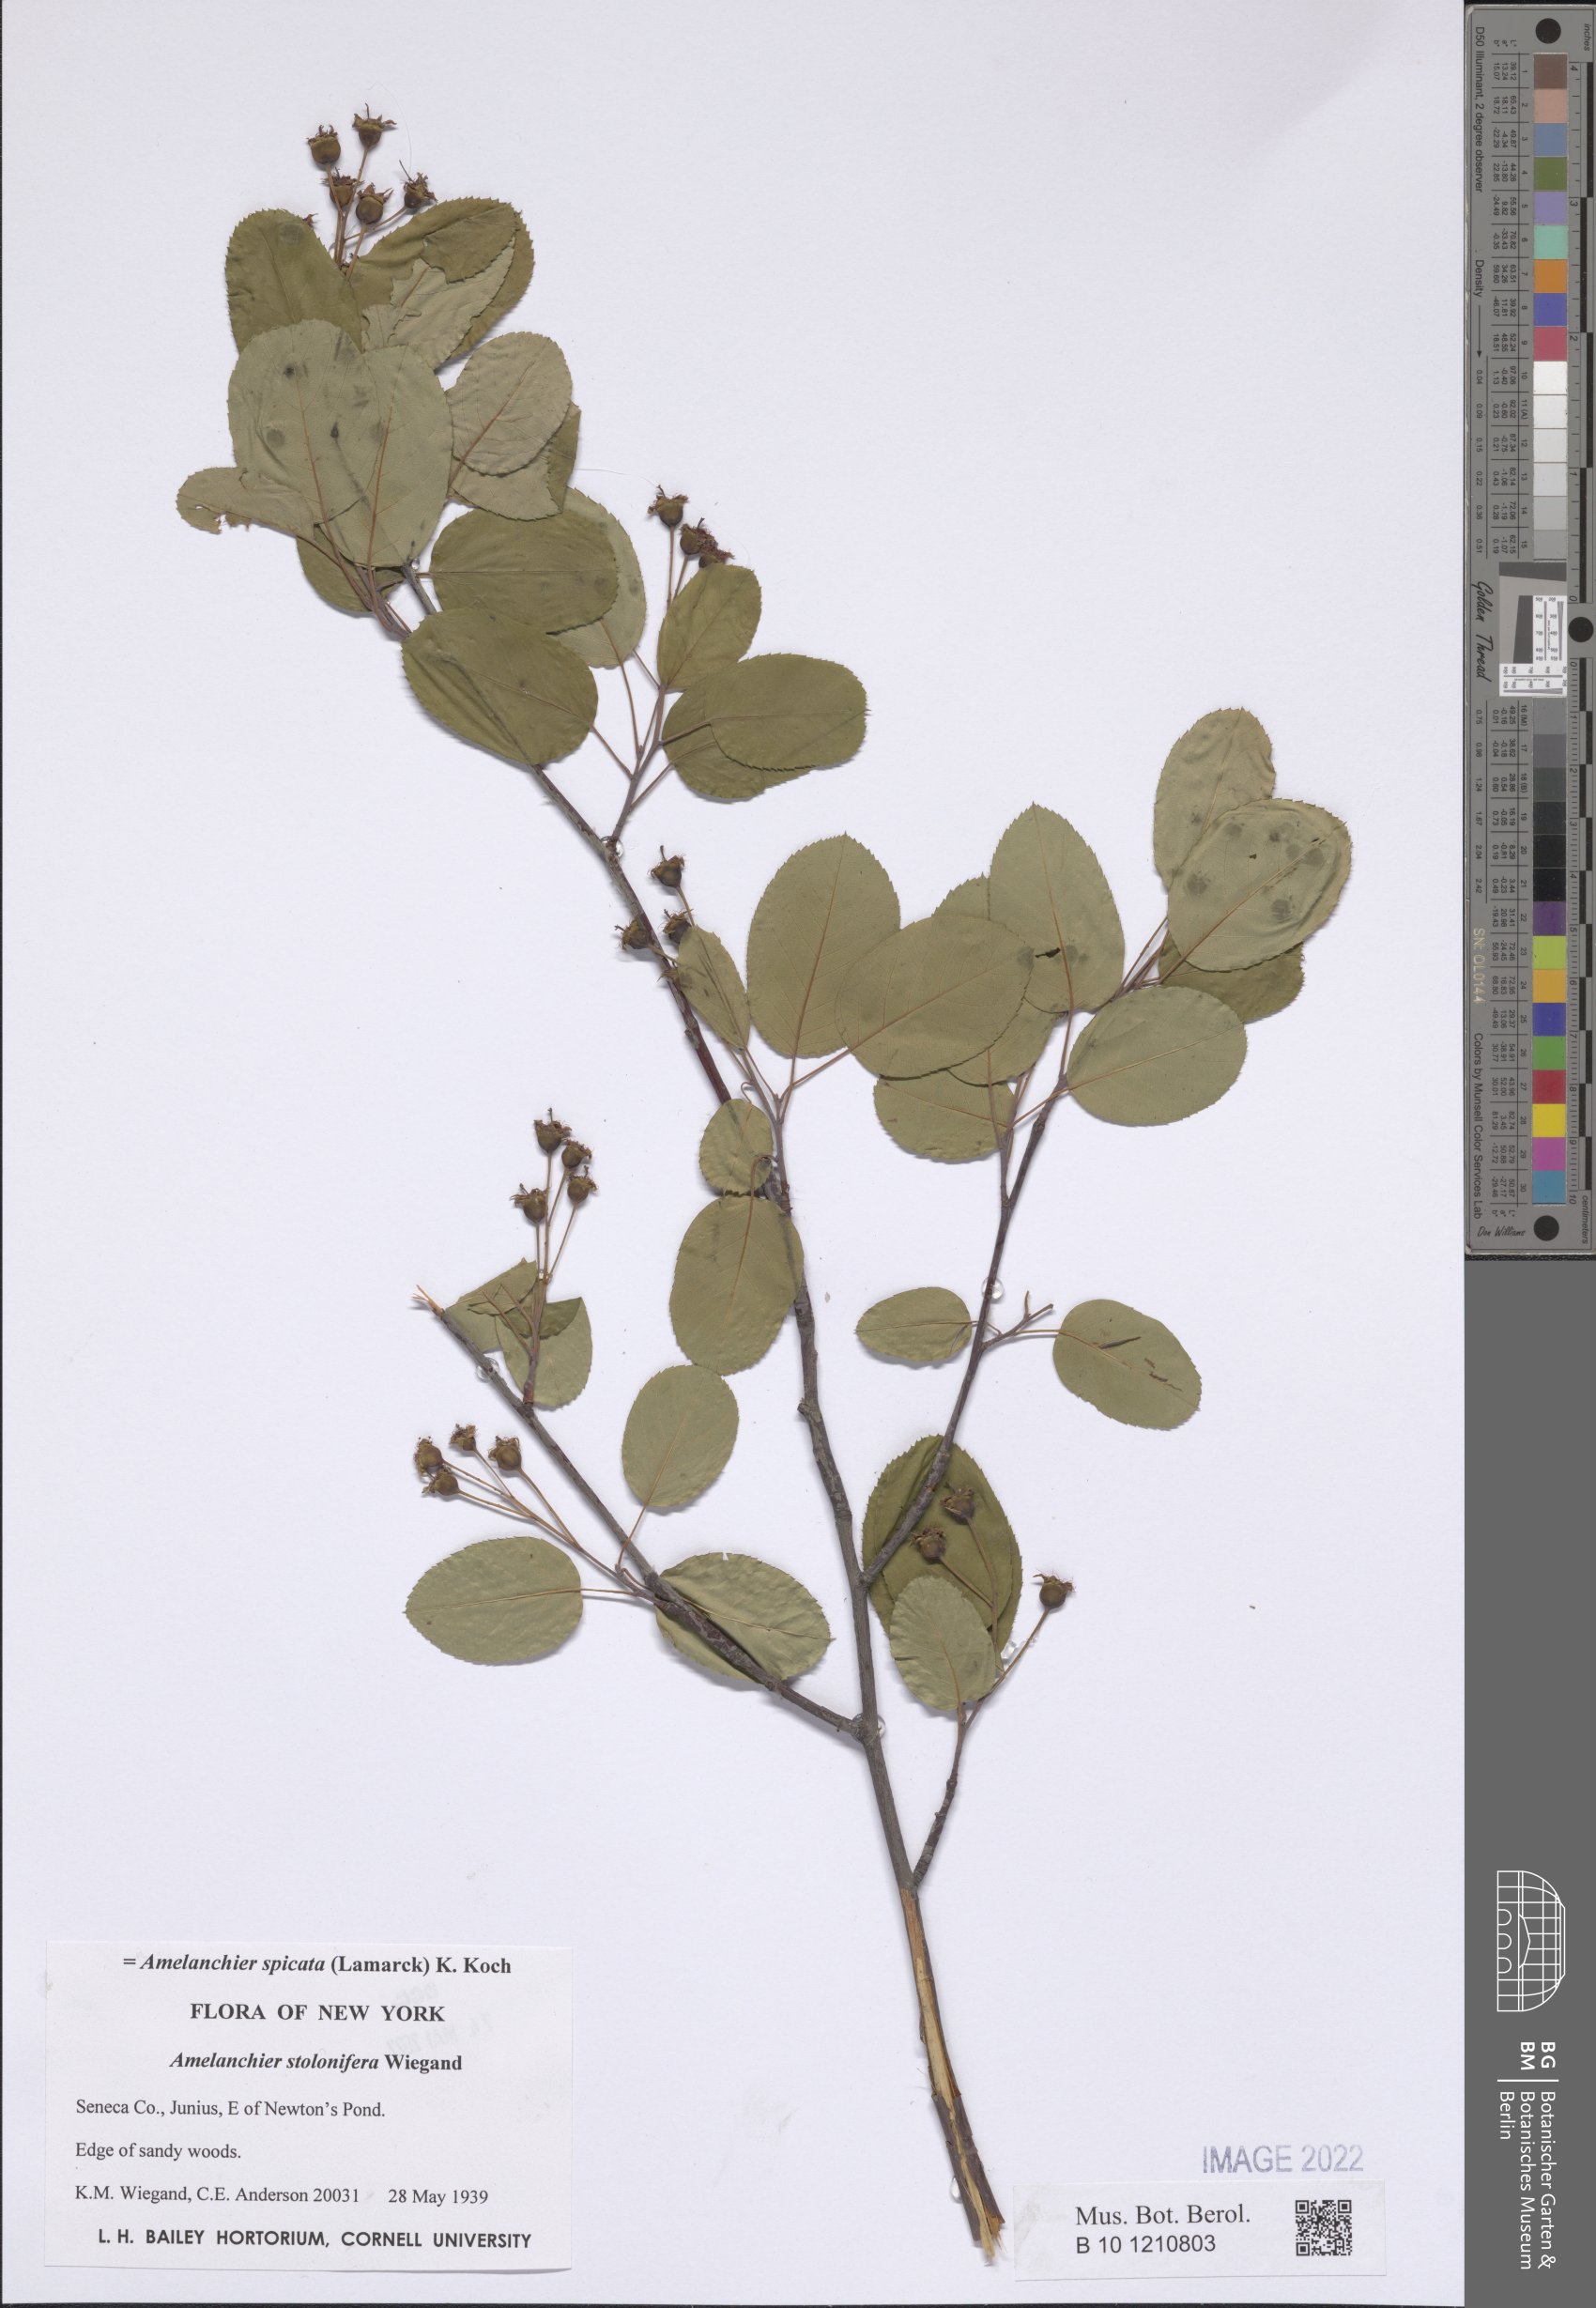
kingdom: Plantae
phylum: Tracheophyta
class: Magnoliopsida
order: Rosales
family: Rosaceae
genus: Amelanchier
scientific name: Amelanchier humilis
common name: Low juneberry
